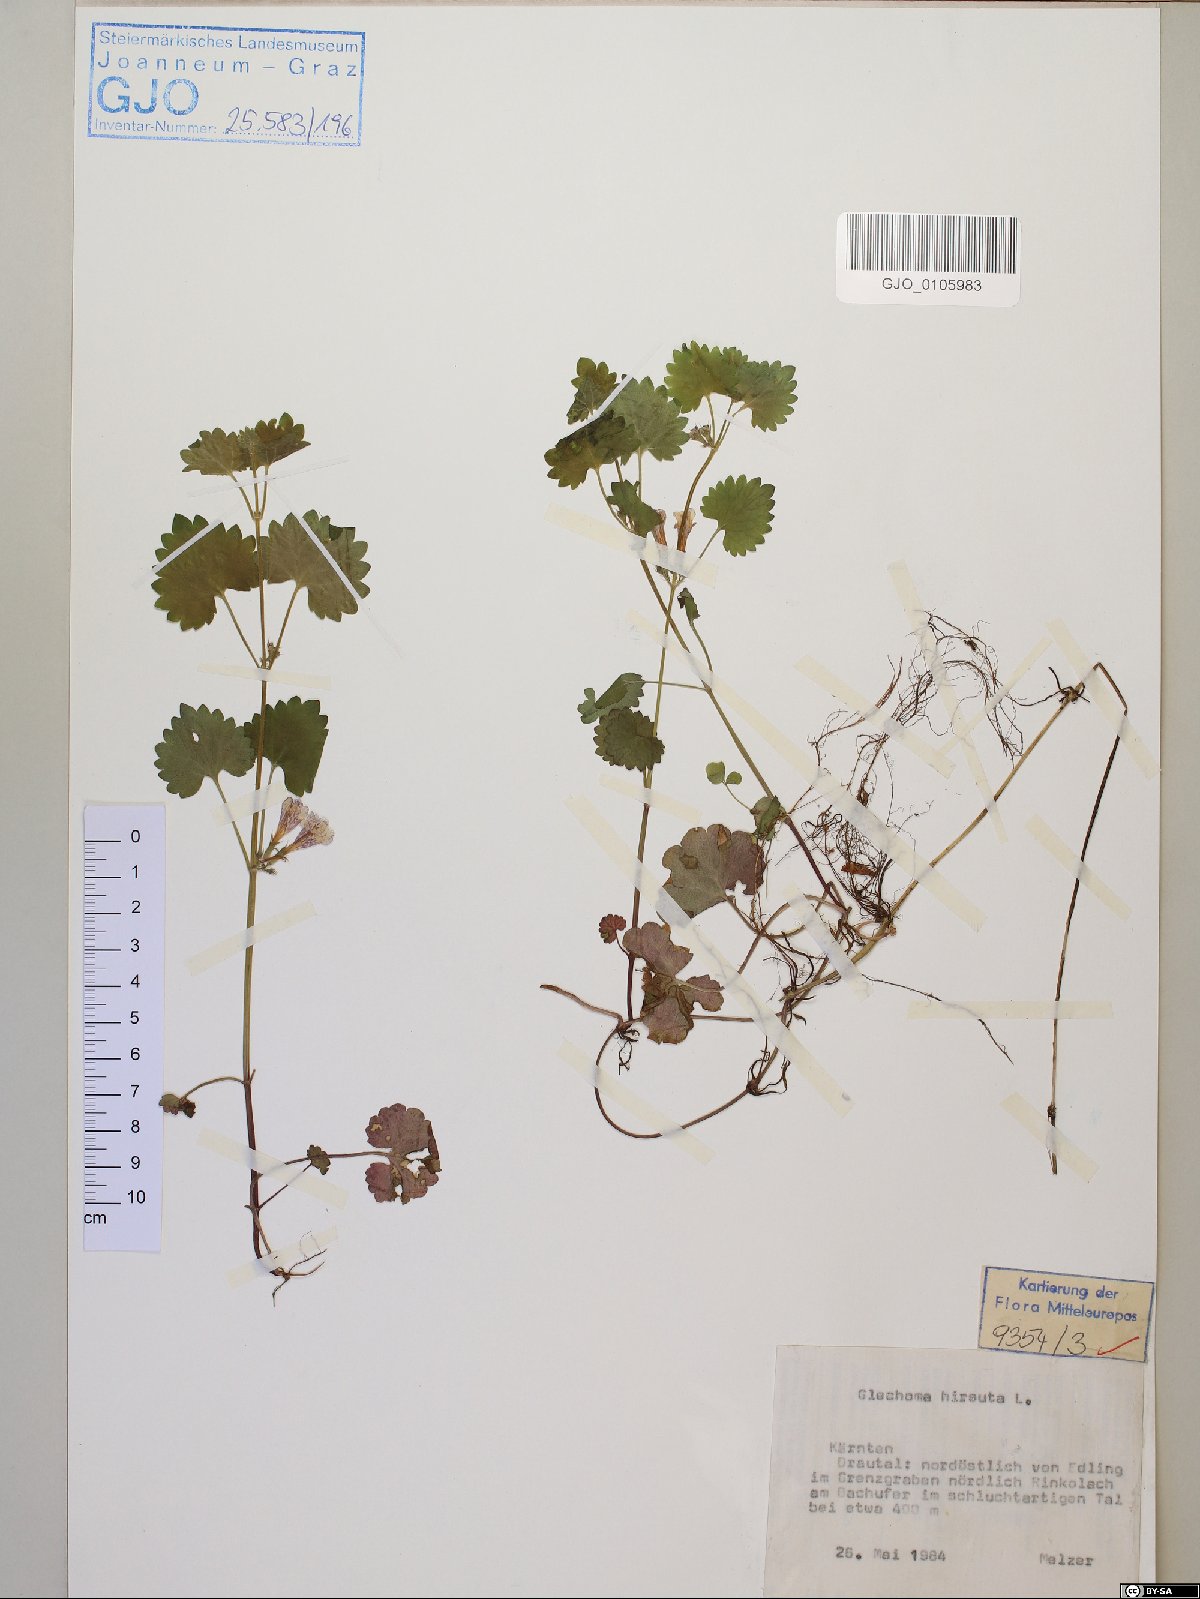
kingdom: Plantae
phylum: Tracheophyta
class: Magnoliopsida
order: Lamiales
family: Lamiaceae
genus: Glechoma
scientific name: Glechoma hirsuta
